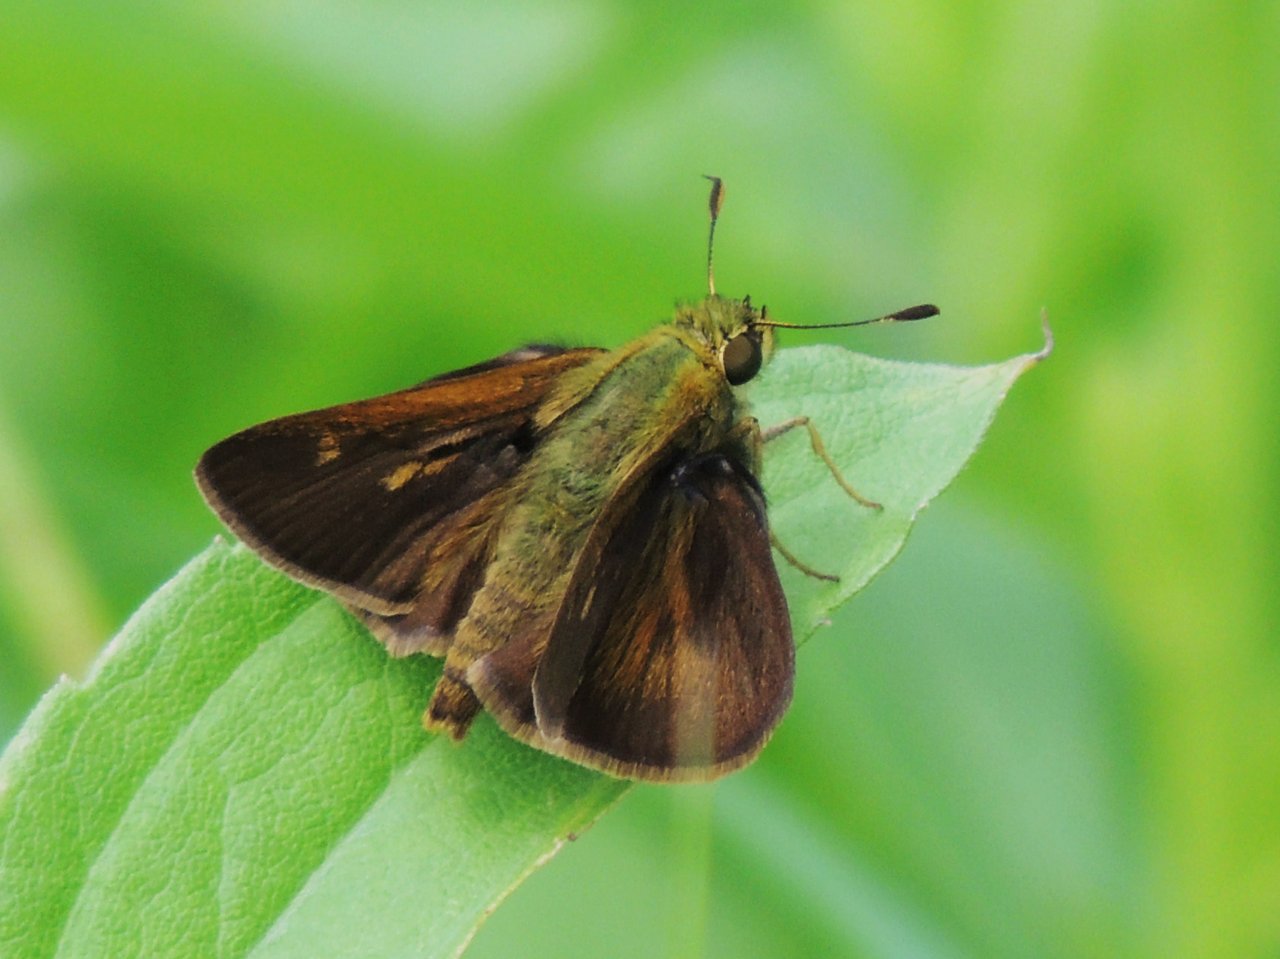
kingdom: Animalia
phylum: Arthropoda
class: Insecta
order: Lepidoptera
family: Hesperiidae
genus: Polites
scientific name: Polites egeremet
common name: Northern Broken-Dash
